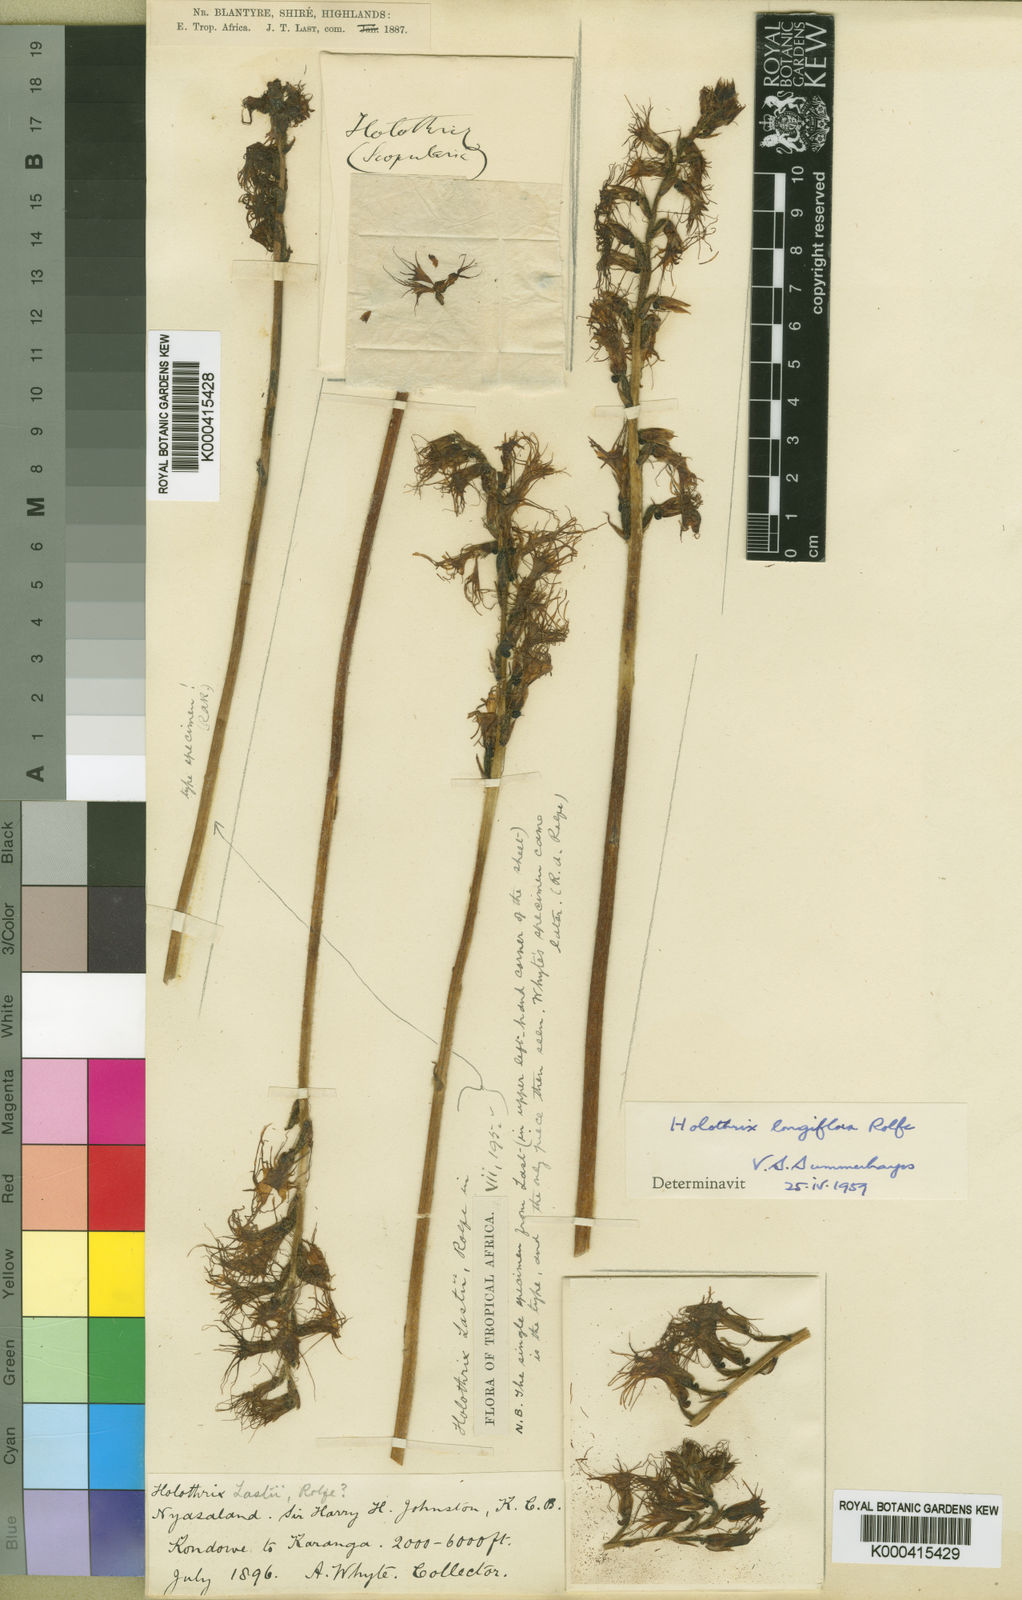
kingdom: Plantae
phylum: Tracheophyta
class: Liliopsida
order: Asparagales
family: Orchidaceae
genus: Holothrix
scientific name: Holothrix longiflora
